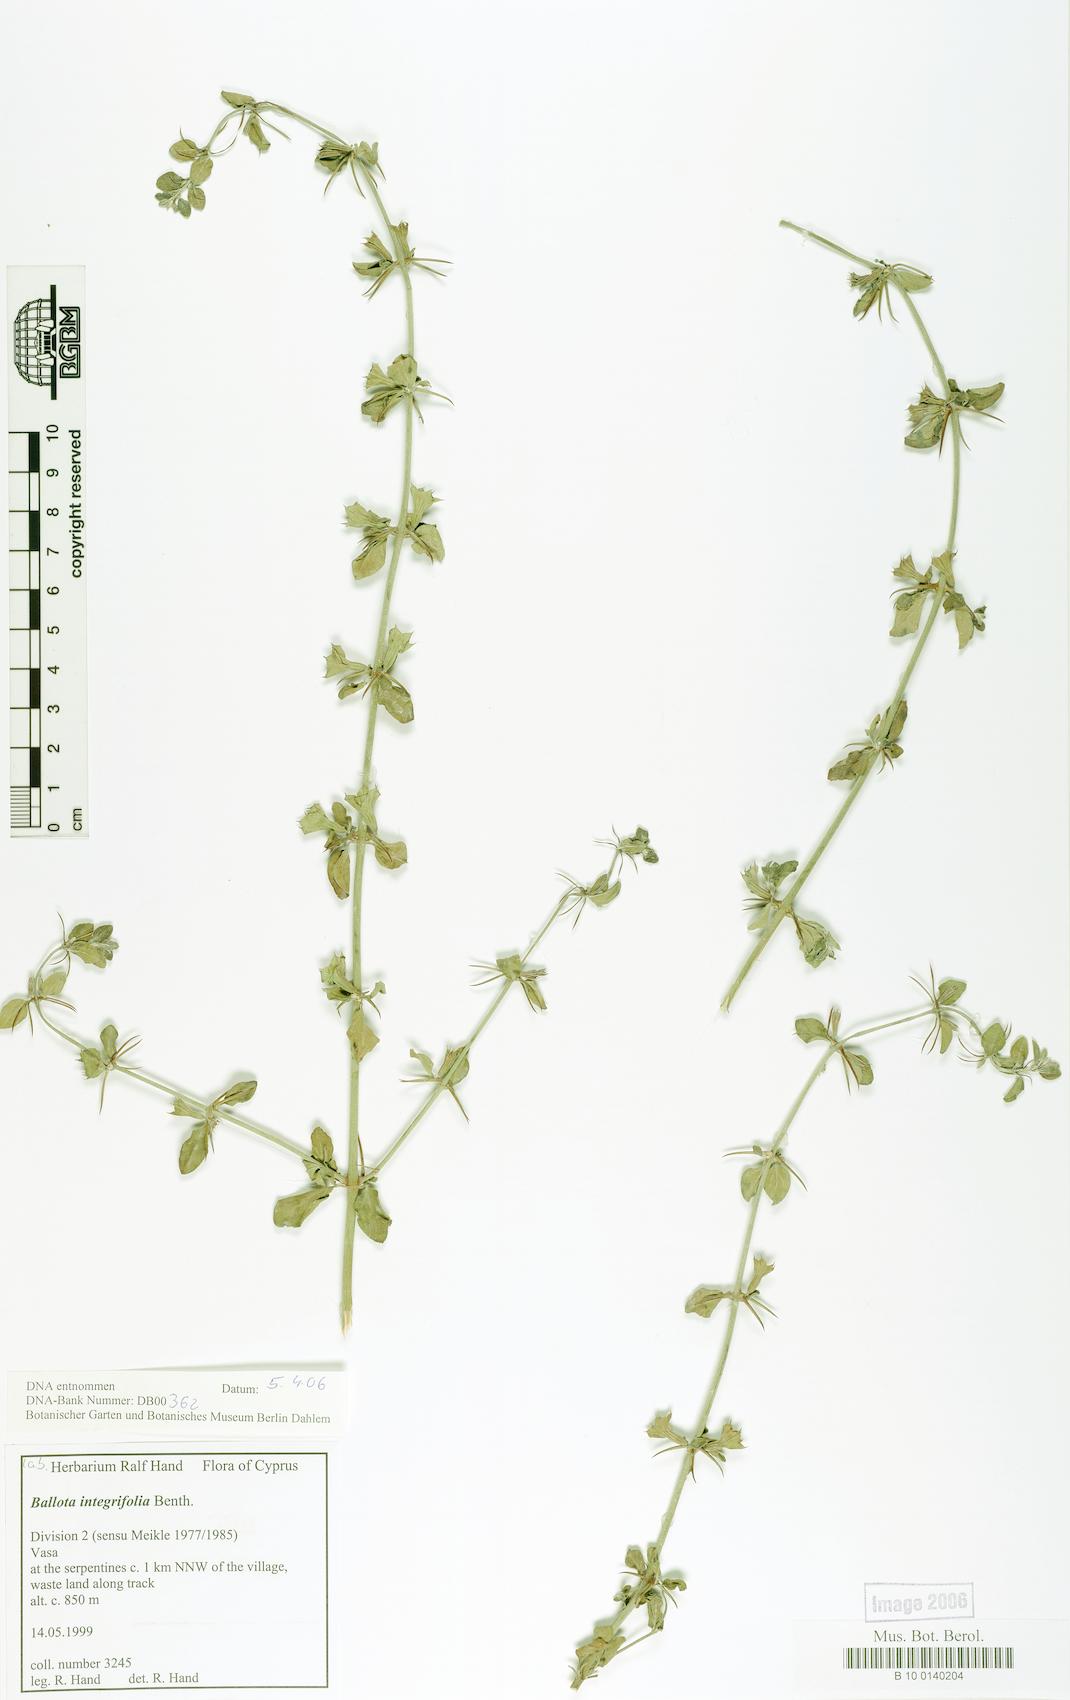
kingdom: Plantae
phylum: Tracheophyta
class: Magnoliopsida
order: Lamiales
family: Lamiaceae
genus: Acanthoprasium
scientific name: Acanthoprasium integrifolium
